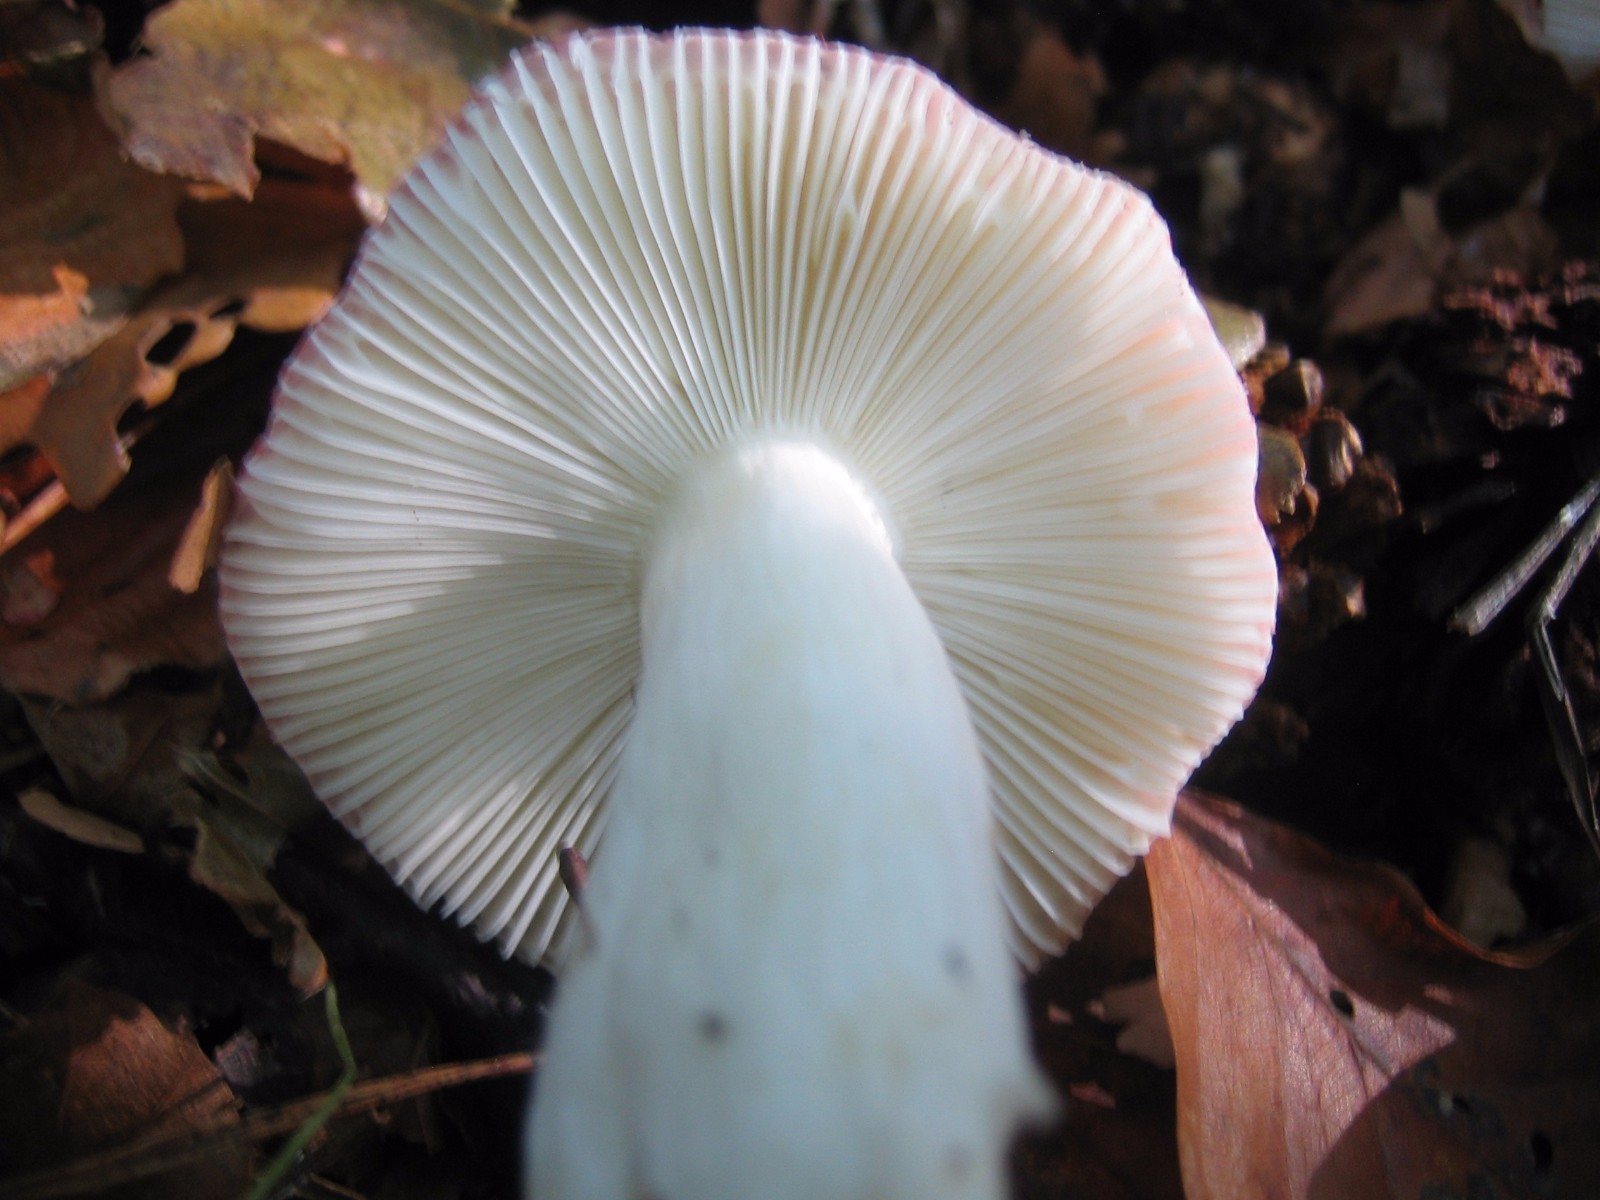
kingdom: Fungi
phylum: Basidiomycota
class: Agaricomycetes
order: Russulales
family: Russulaceae
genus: Russula
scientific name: Russula silvestris
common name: mellemstor gift-skørhat
